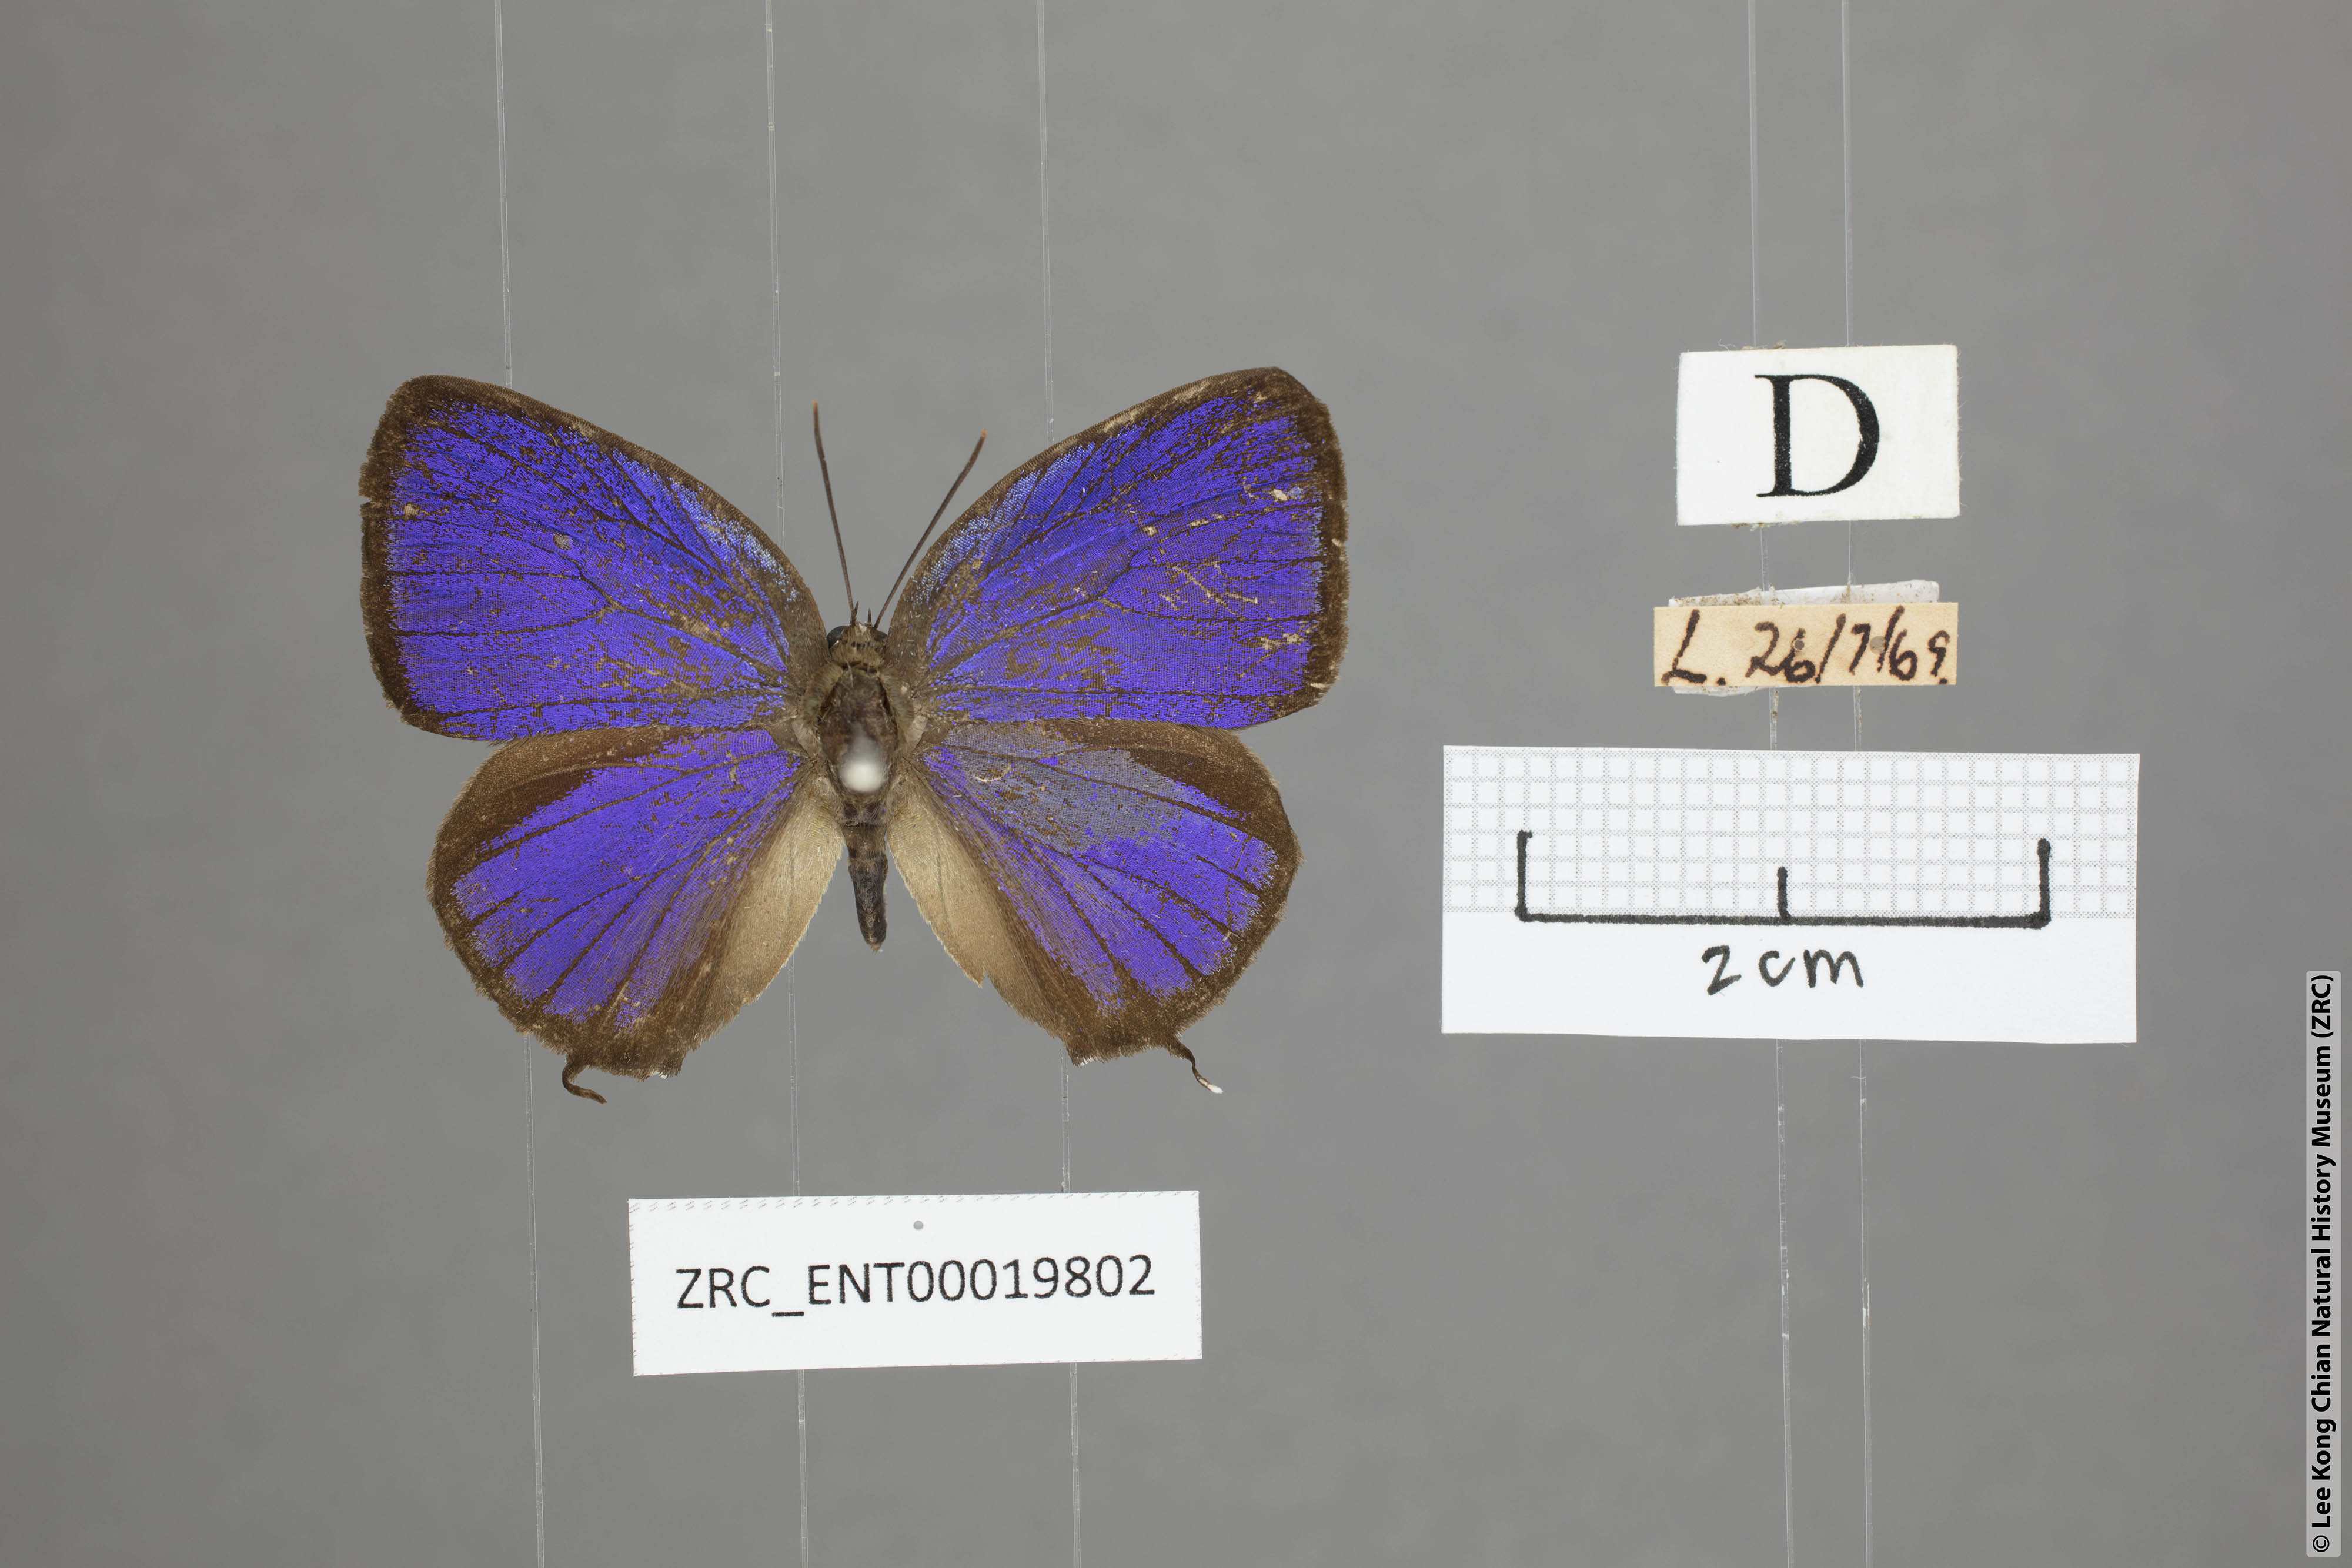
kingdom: Animalia
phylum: Arthropoda
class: Insecta
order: Lepidoptera
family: Lycaenidae
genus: Arhopala
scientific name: Arhopala pseudomuta
